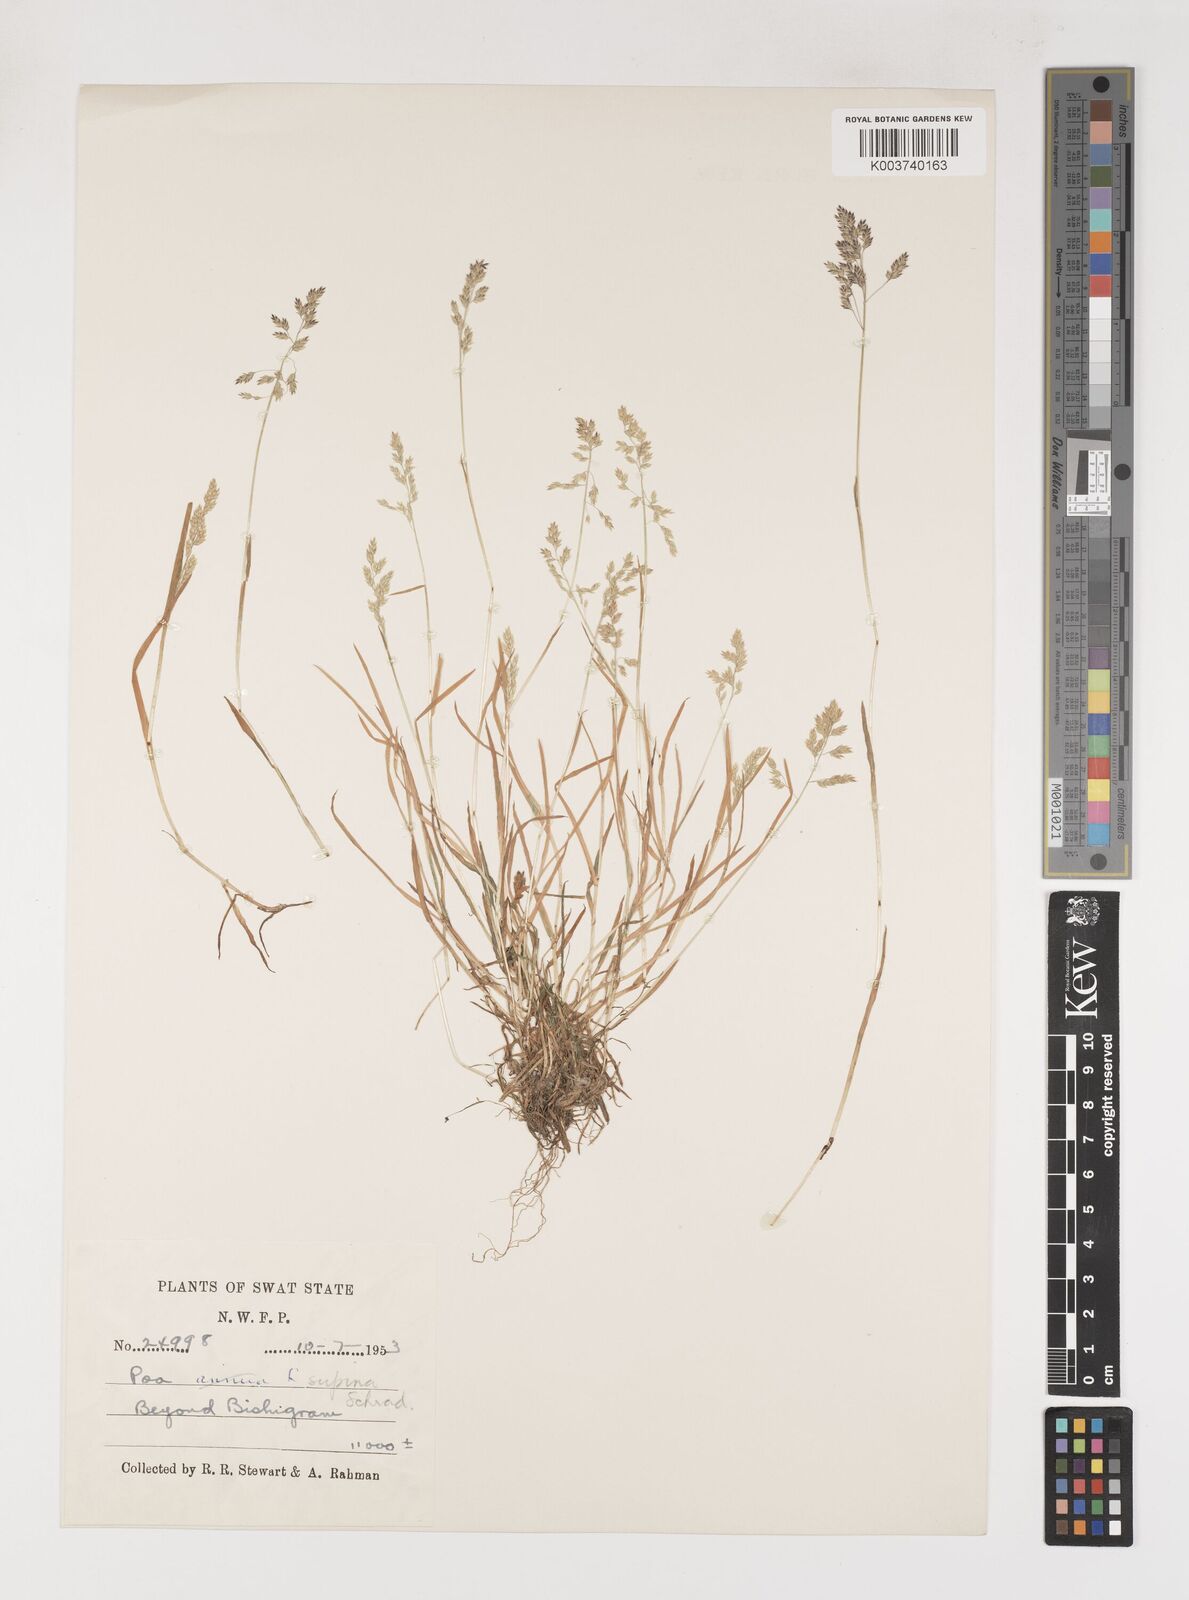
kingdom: Plantae
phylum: Tracheophyta
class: Liliopsida
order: Poales
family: Poaceae
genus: Poa
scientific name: Poa supina
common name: Supina bluegrass
